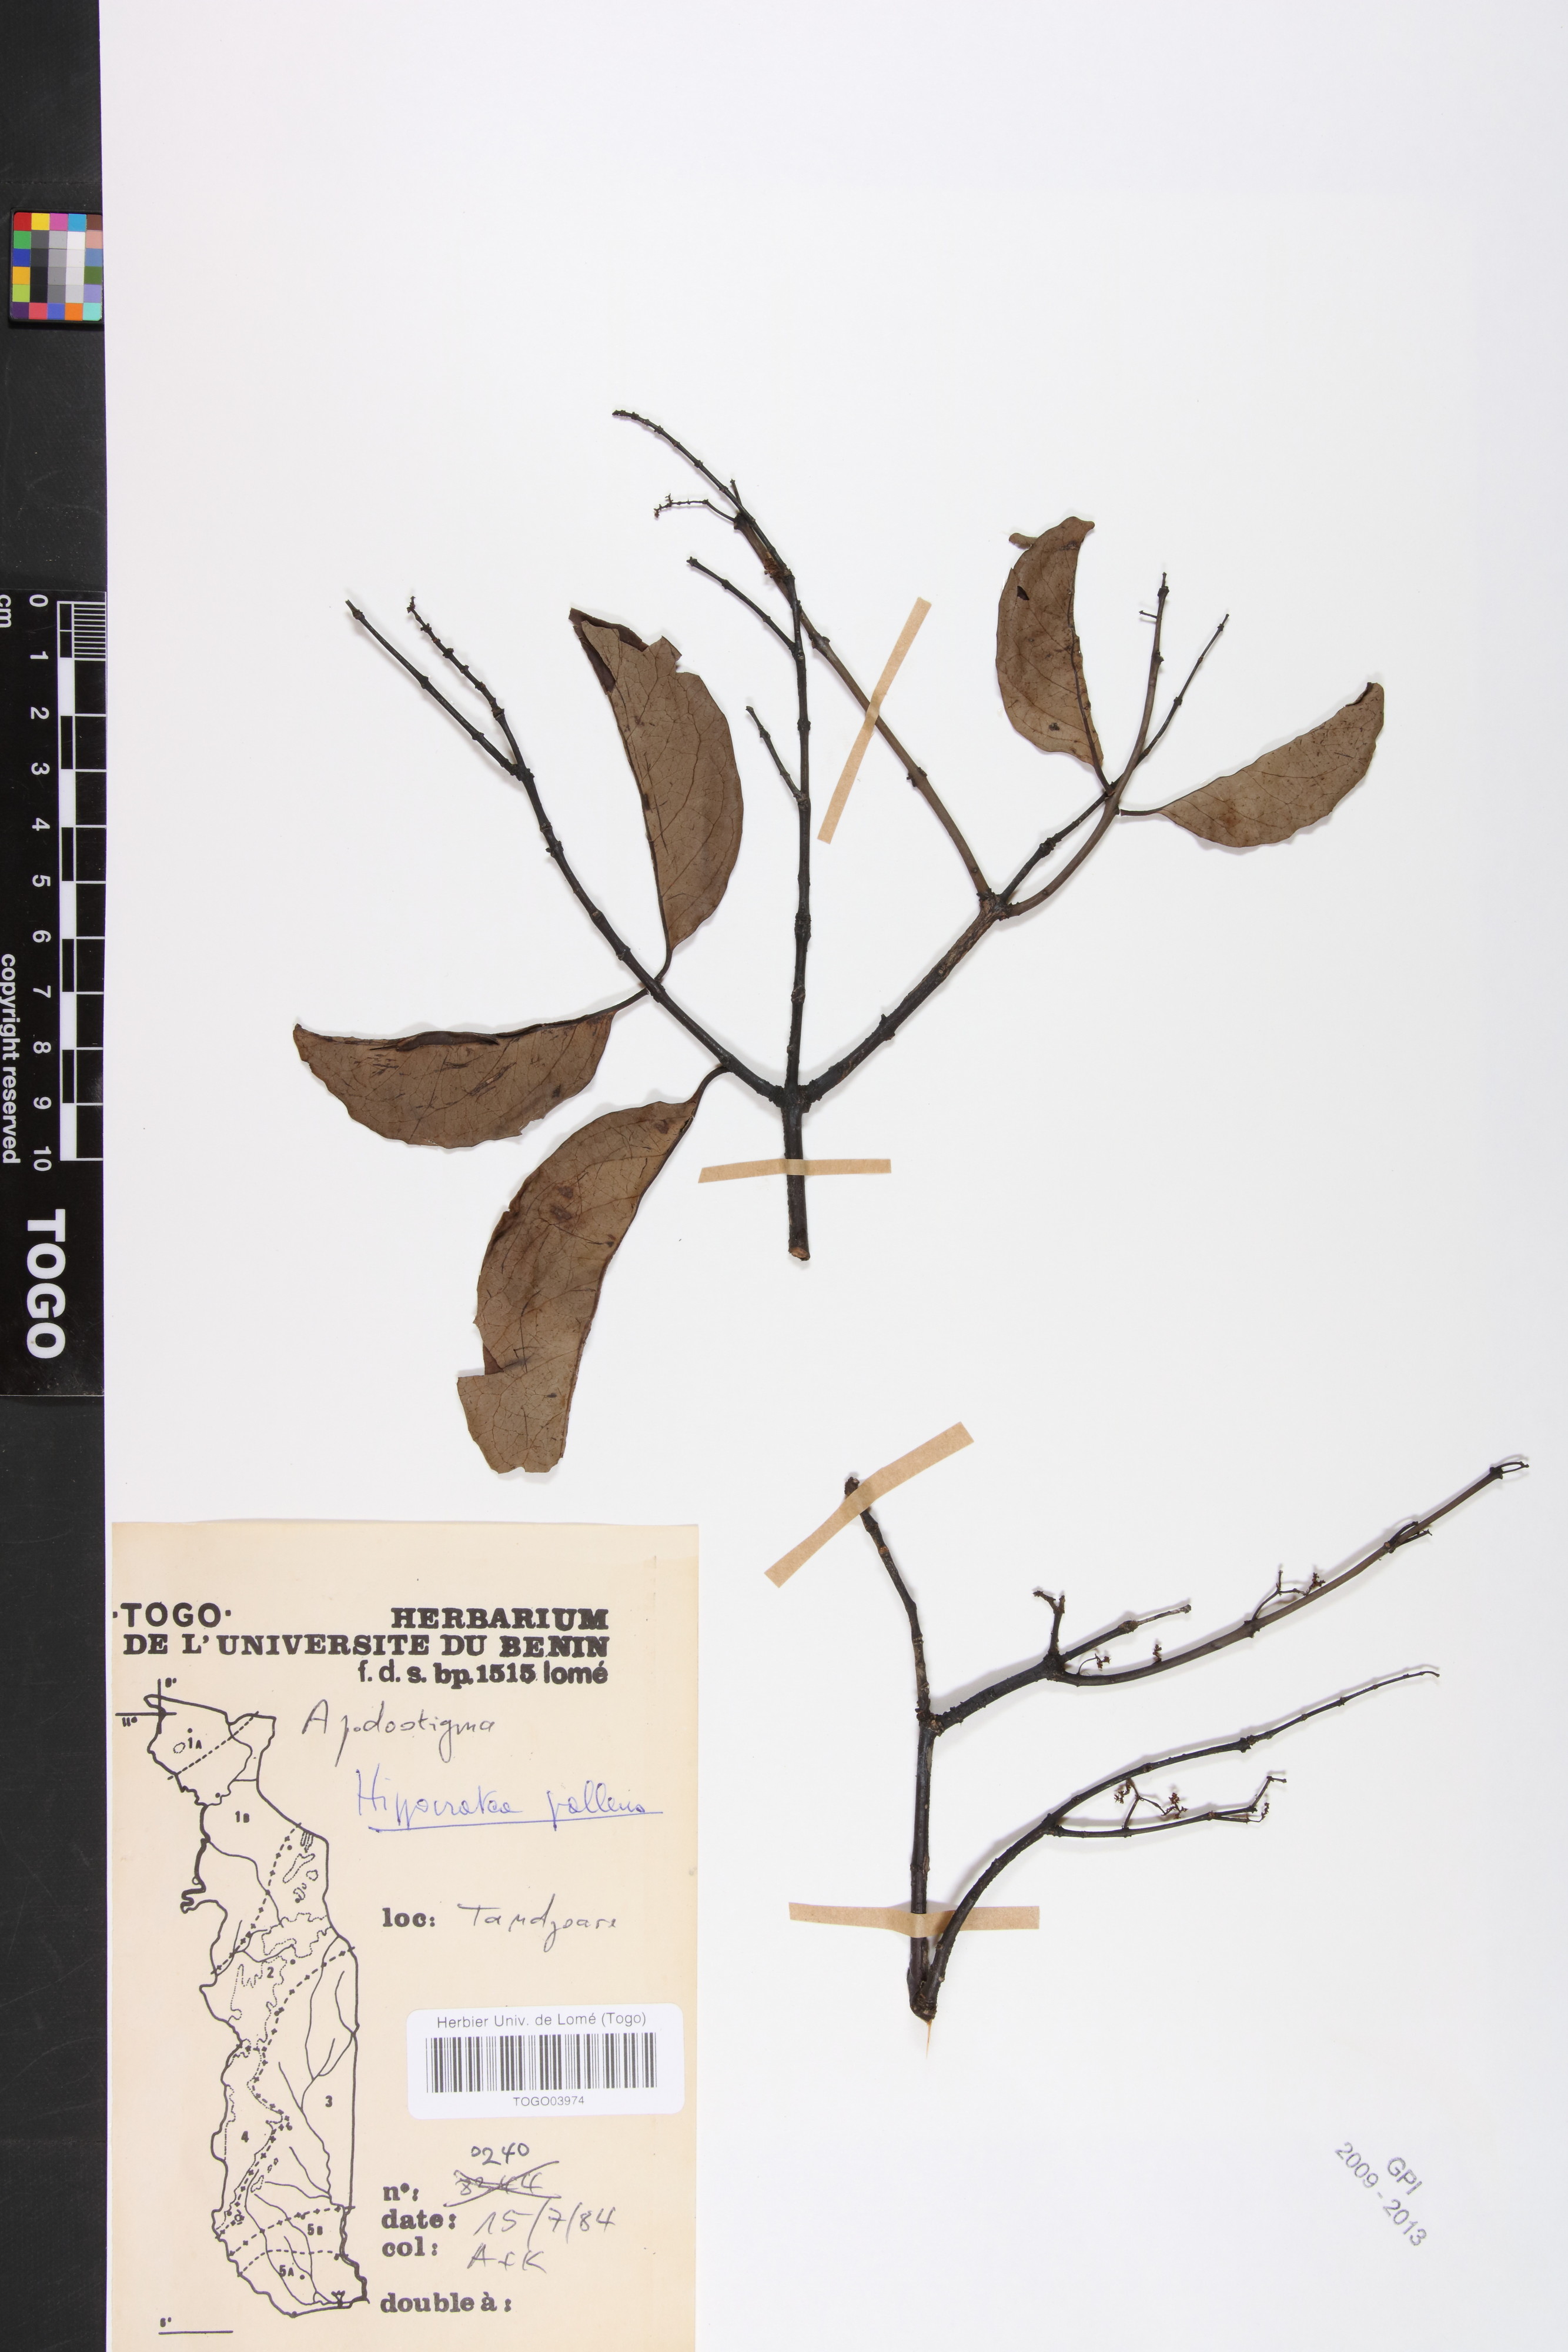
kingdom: Plantae
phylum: Tracheophyta
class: Magnoliopsida
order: Celastrales
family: Celastraceae
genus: Apodostigma
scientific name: Apodostigma pallens
